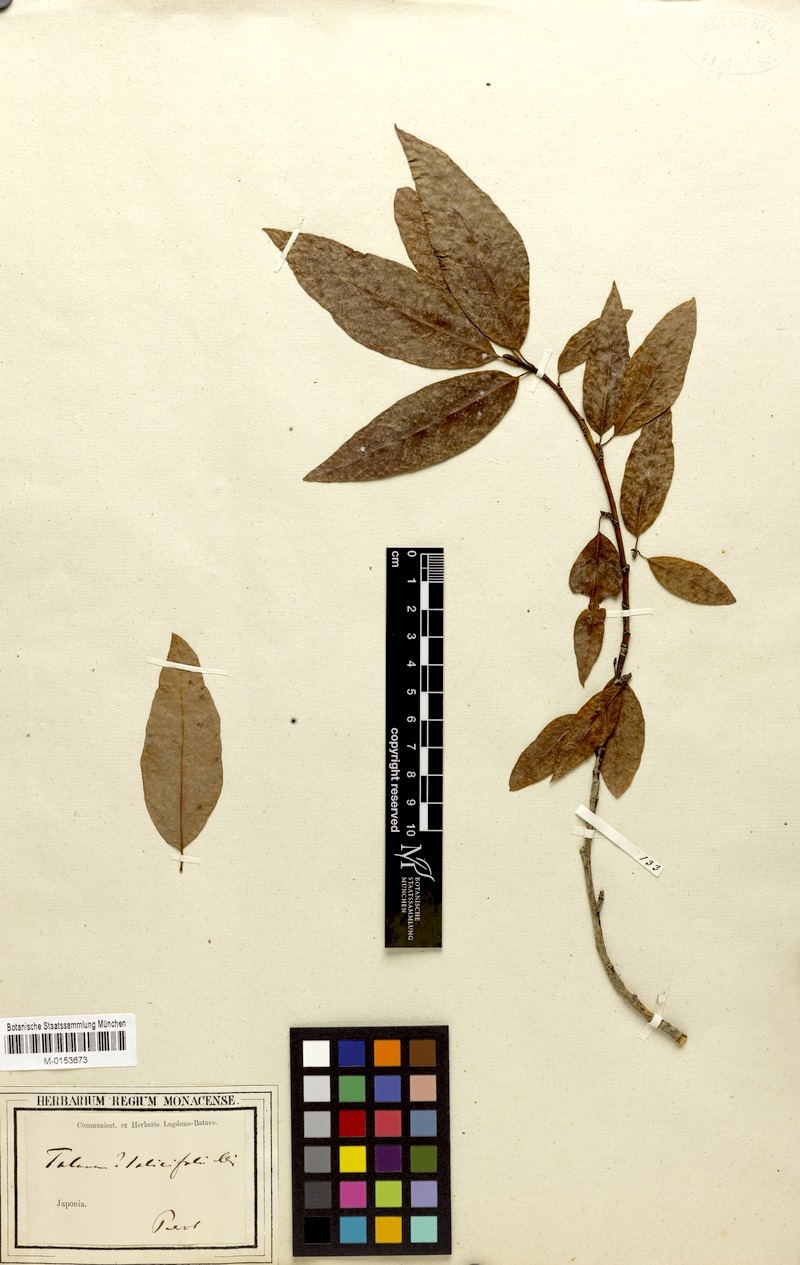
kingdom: Plantae
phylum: Tracheophyta
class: Magnoliopsida
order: Magnoliales
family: Magnoliaceae
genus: Magnolia
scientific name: Magnolia salicifolia
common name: Anise magnolia
